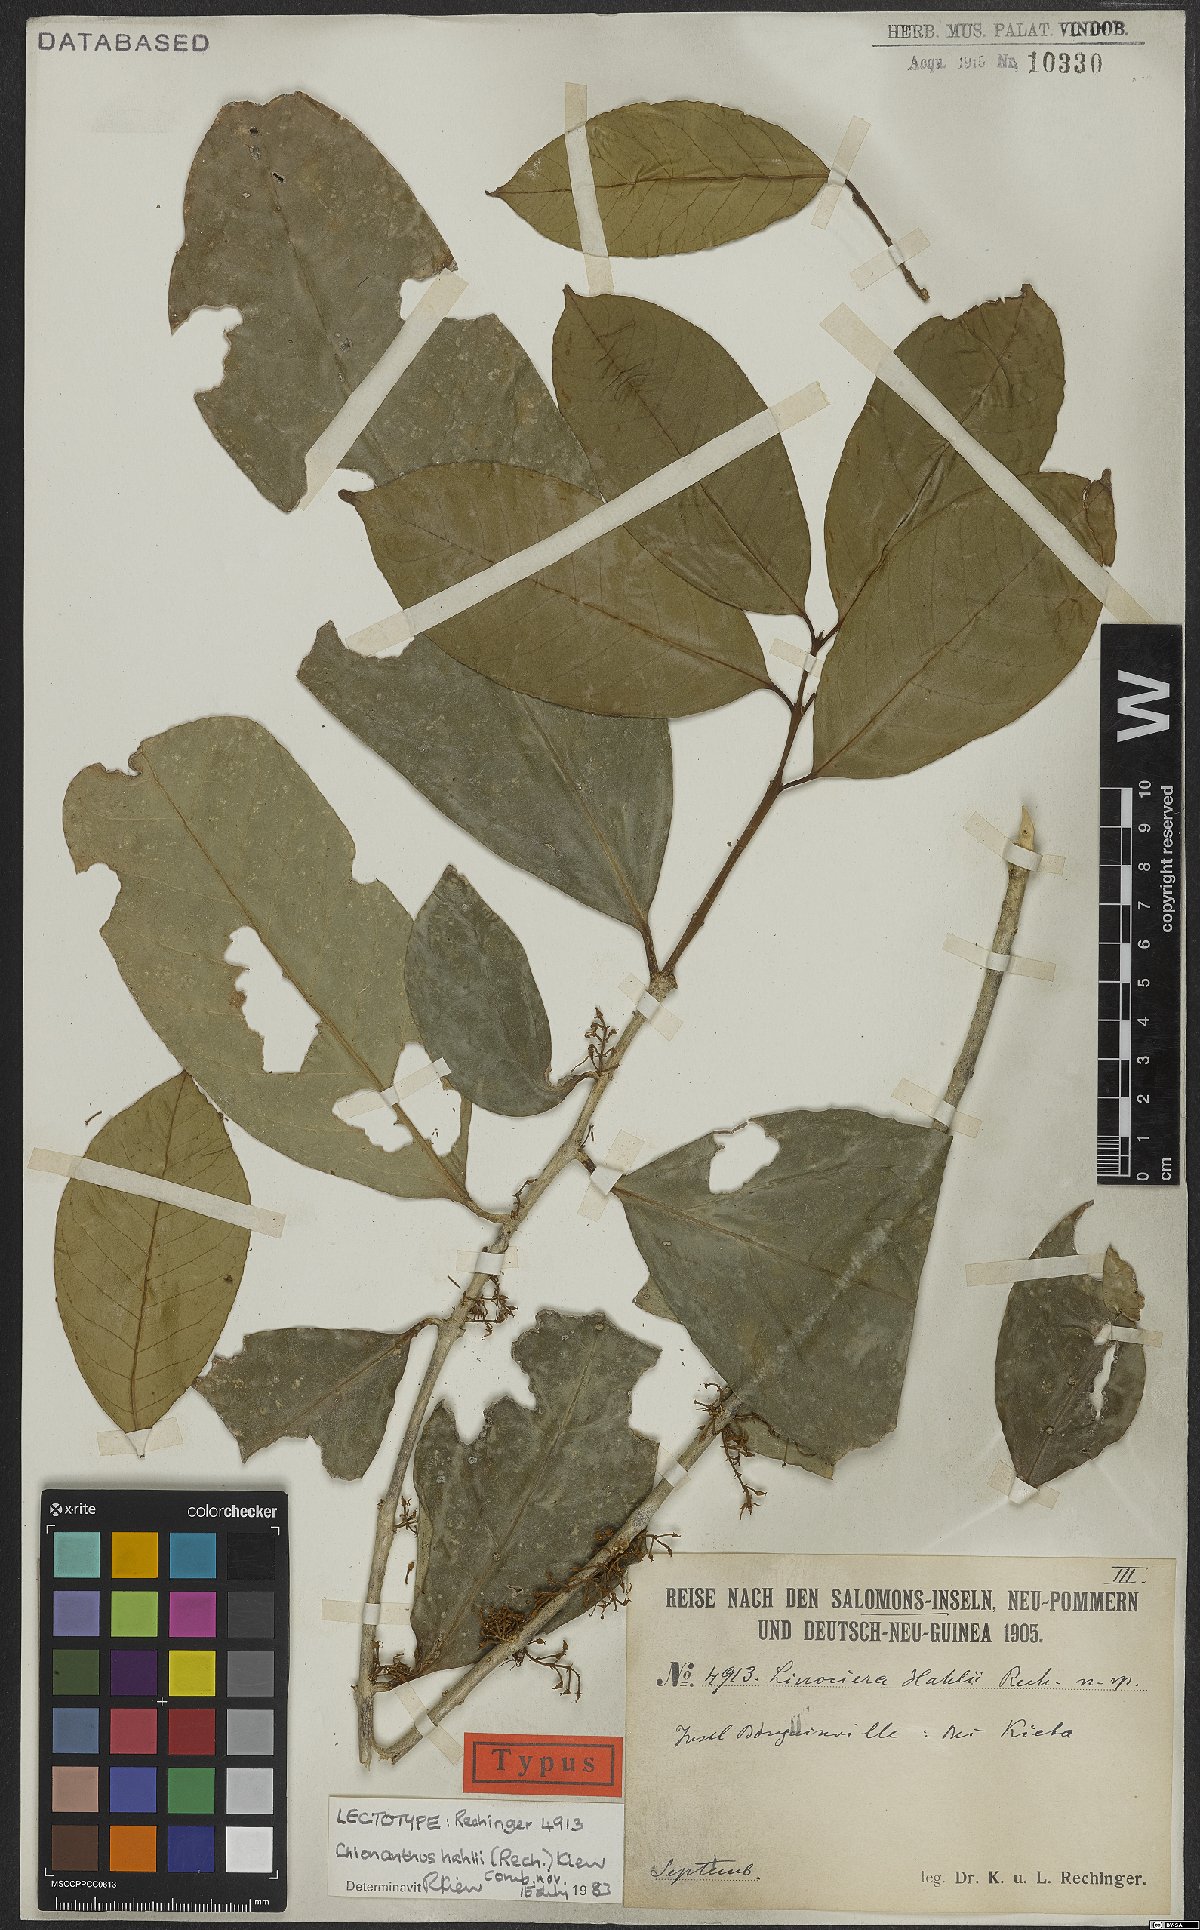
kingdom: Plantae
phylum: Tracheophyta
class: Magnoliopsida
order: Lamiales
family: Oleaceae
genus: Chionanthus
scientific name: Chionanthus hahlii
